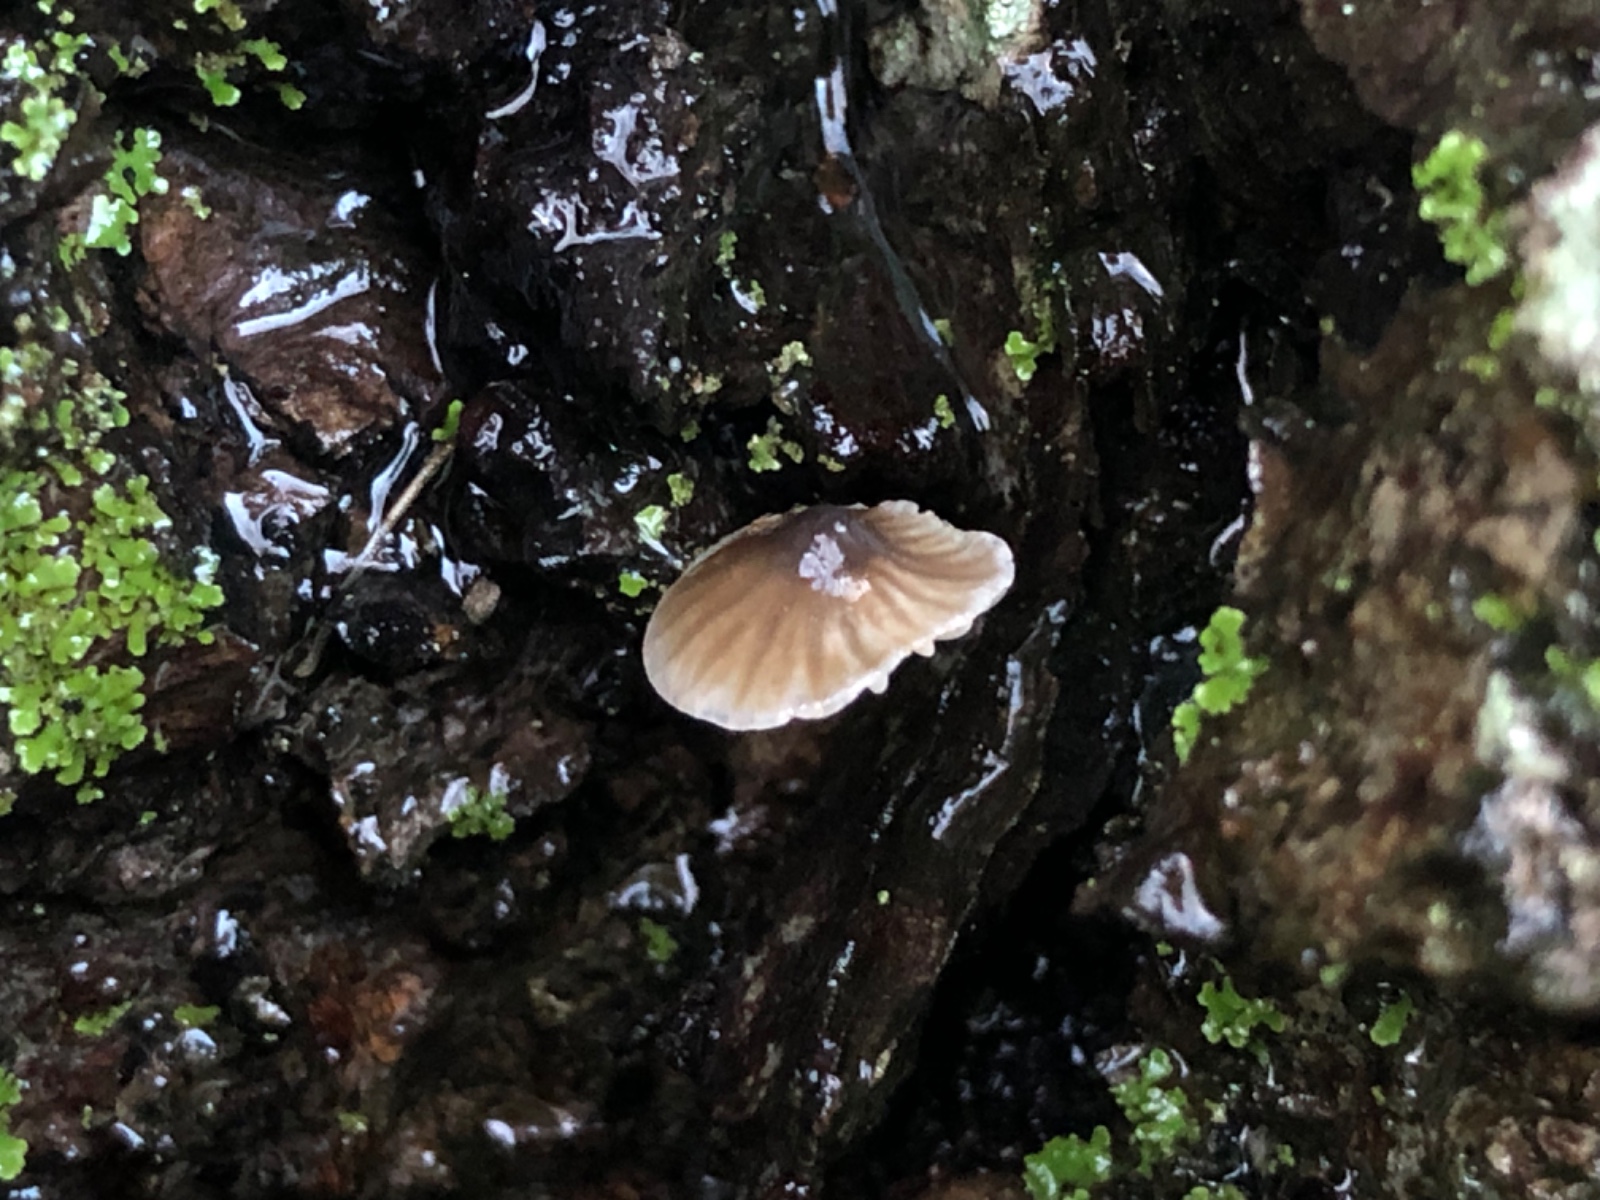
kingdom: Fungi
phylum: Basidiomycota
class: Agaricomycetes
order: Agaricales
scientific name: Agaricales
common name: champignonordenen
